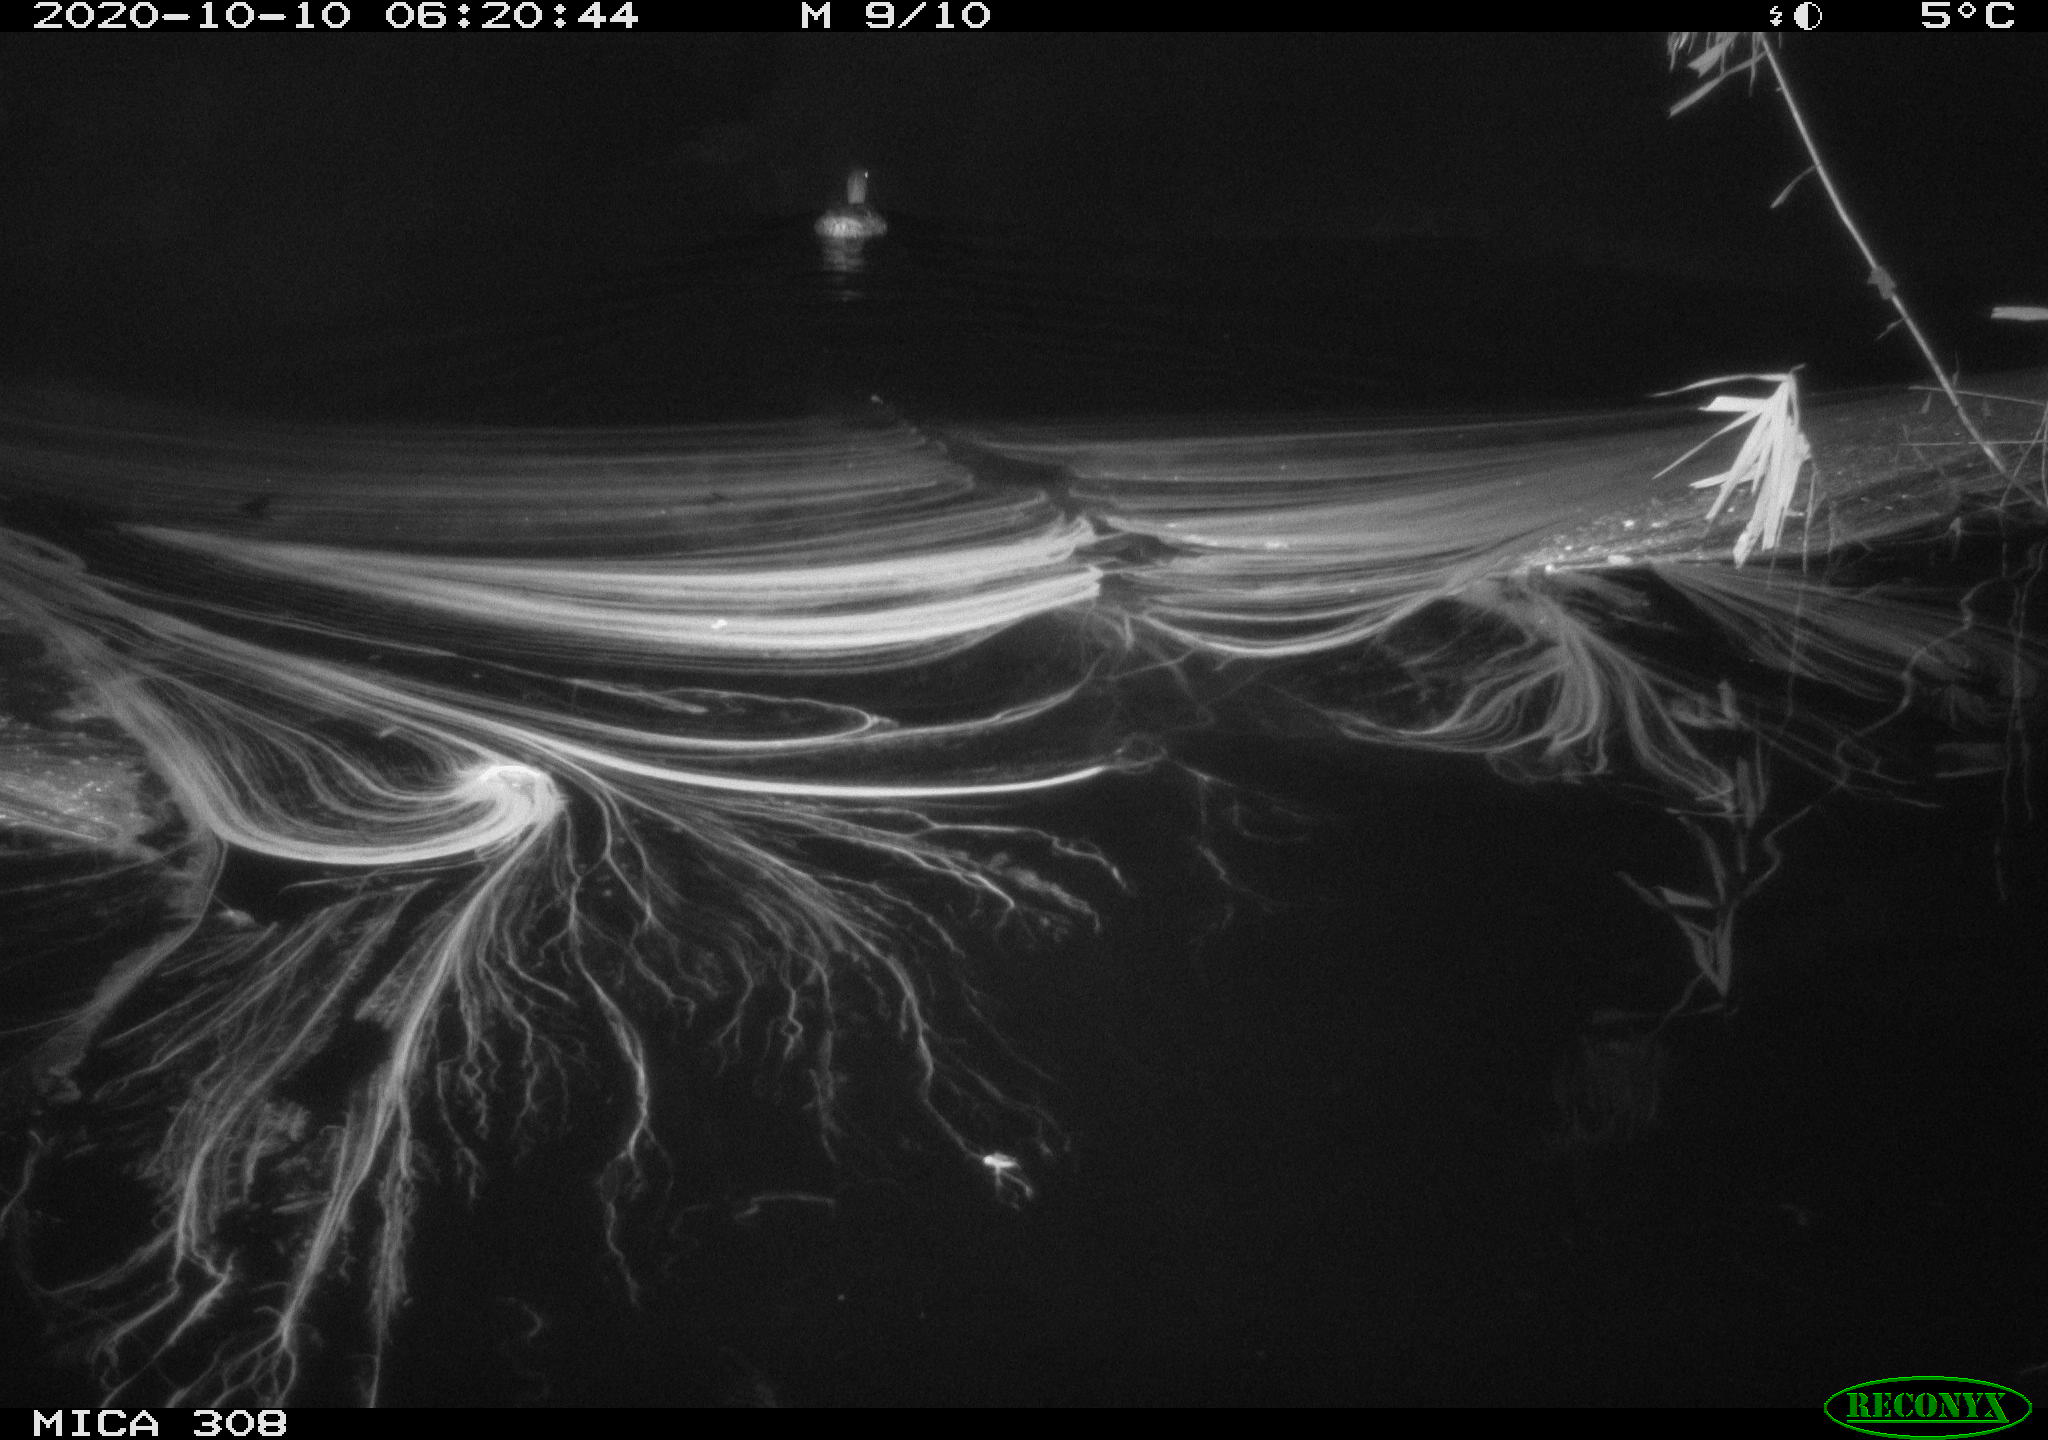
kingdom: Animalia
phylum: Chordata
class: Aves
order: Anseriformes
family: Anatidae
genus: Anas
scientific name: Anas platyrhynchos
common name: Mallard
